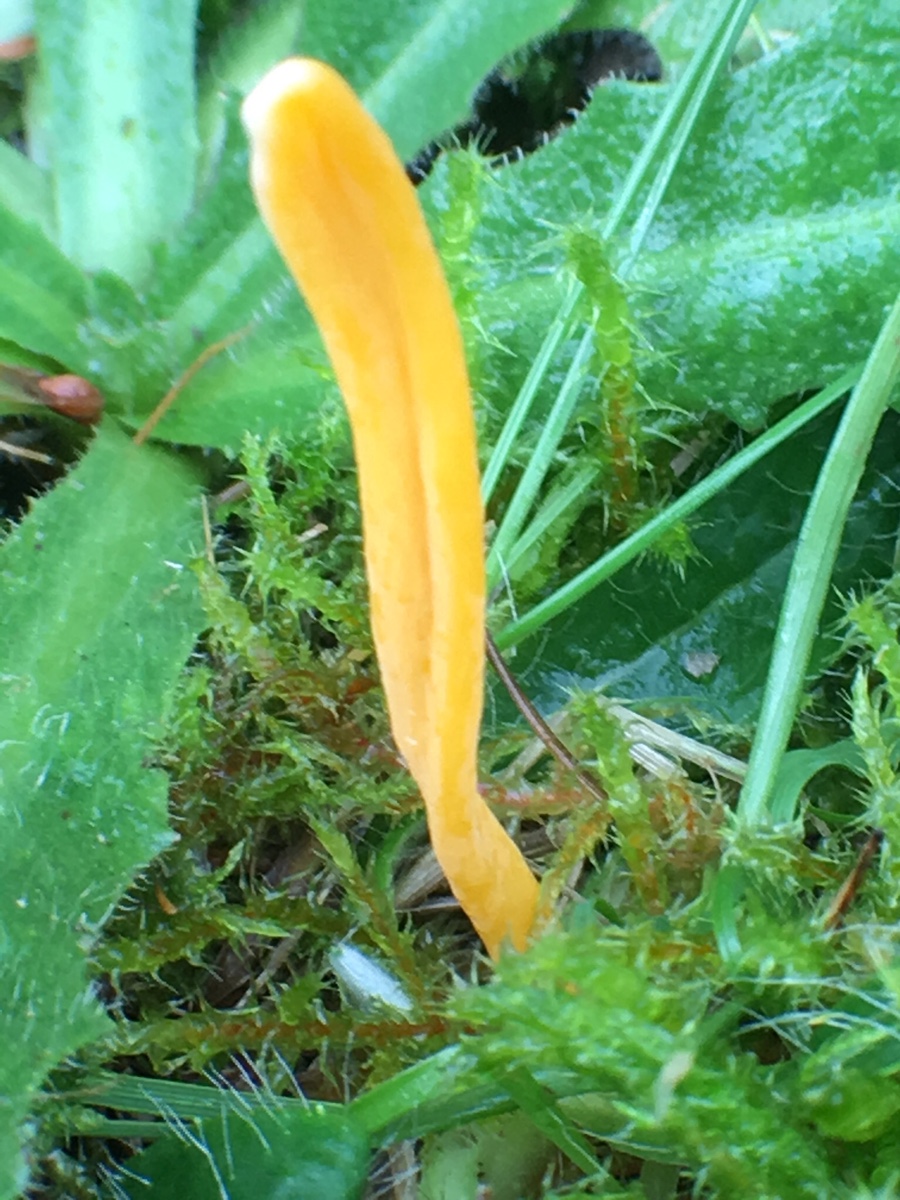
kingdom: Fungi
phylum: Basidiomycota
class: Agaricomycetes
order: Agaricales
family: Clavariaceae
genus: Clavulinopsis
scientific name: Clavulinopsis
